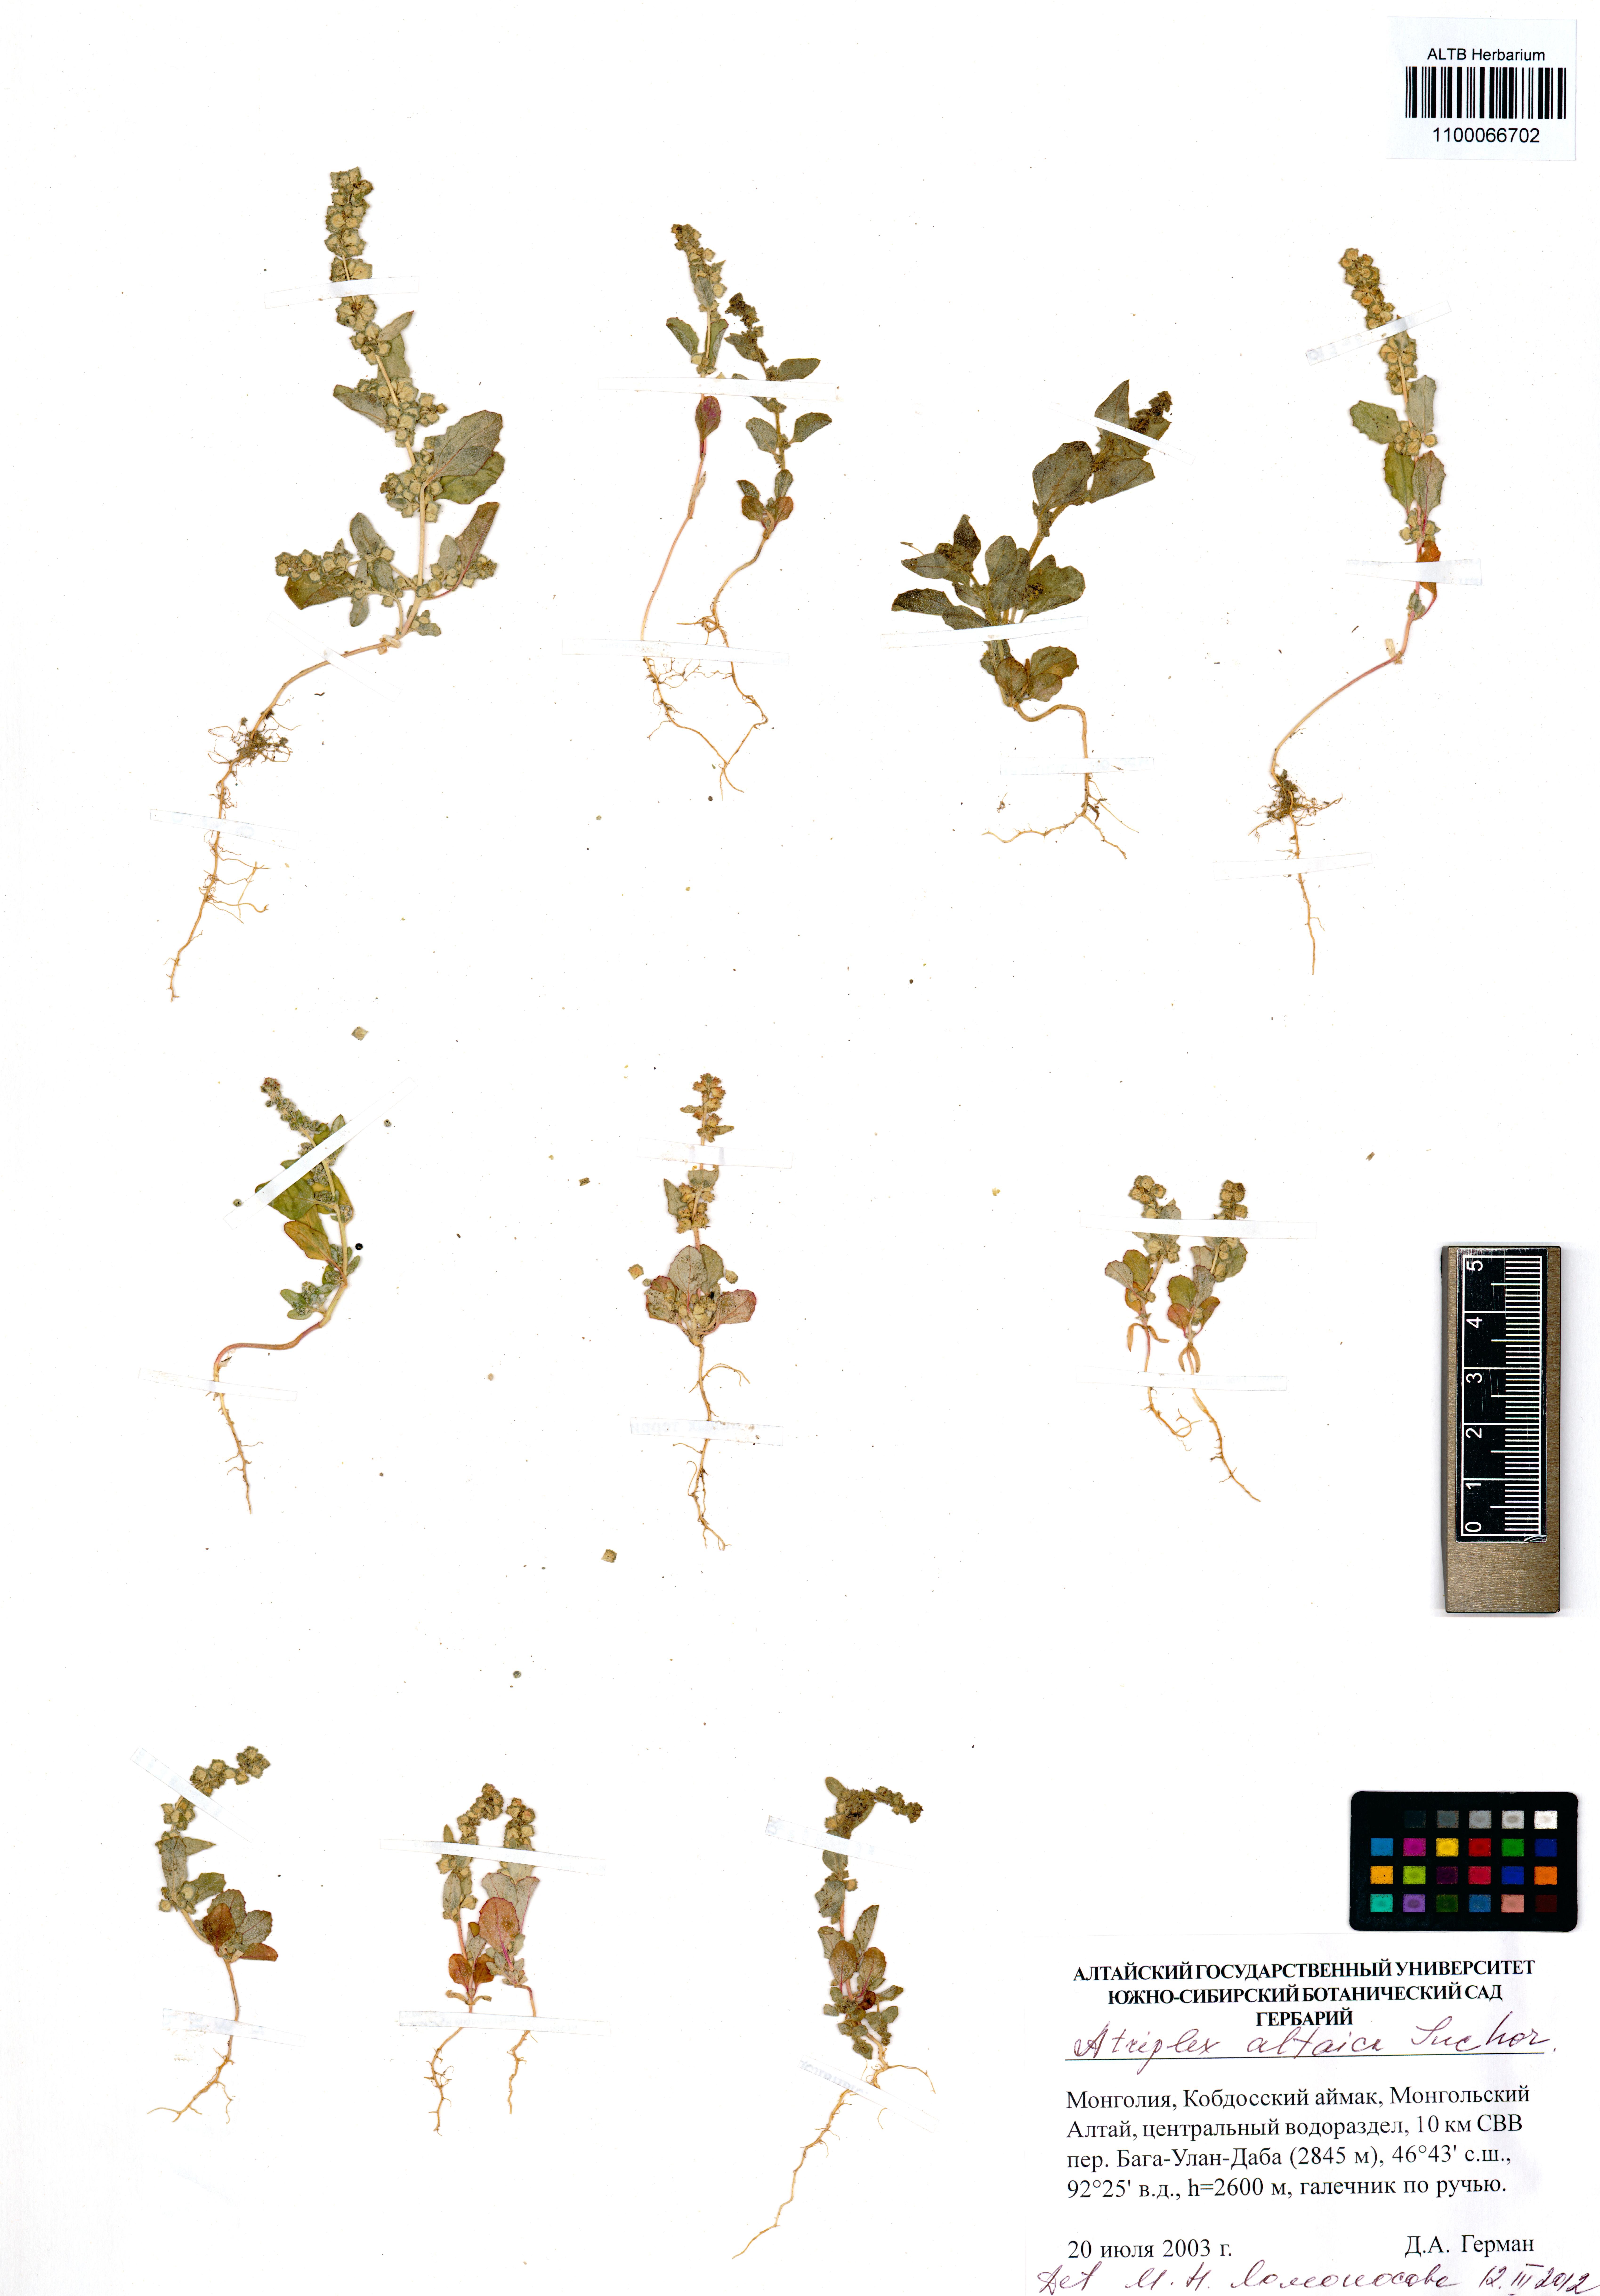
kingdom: Plantae
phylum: Tracheophyta
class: Magnoliopsida
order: Caryophyllales
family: Amaranthaceae
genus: Atriplex
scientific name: Atriplex altaica
